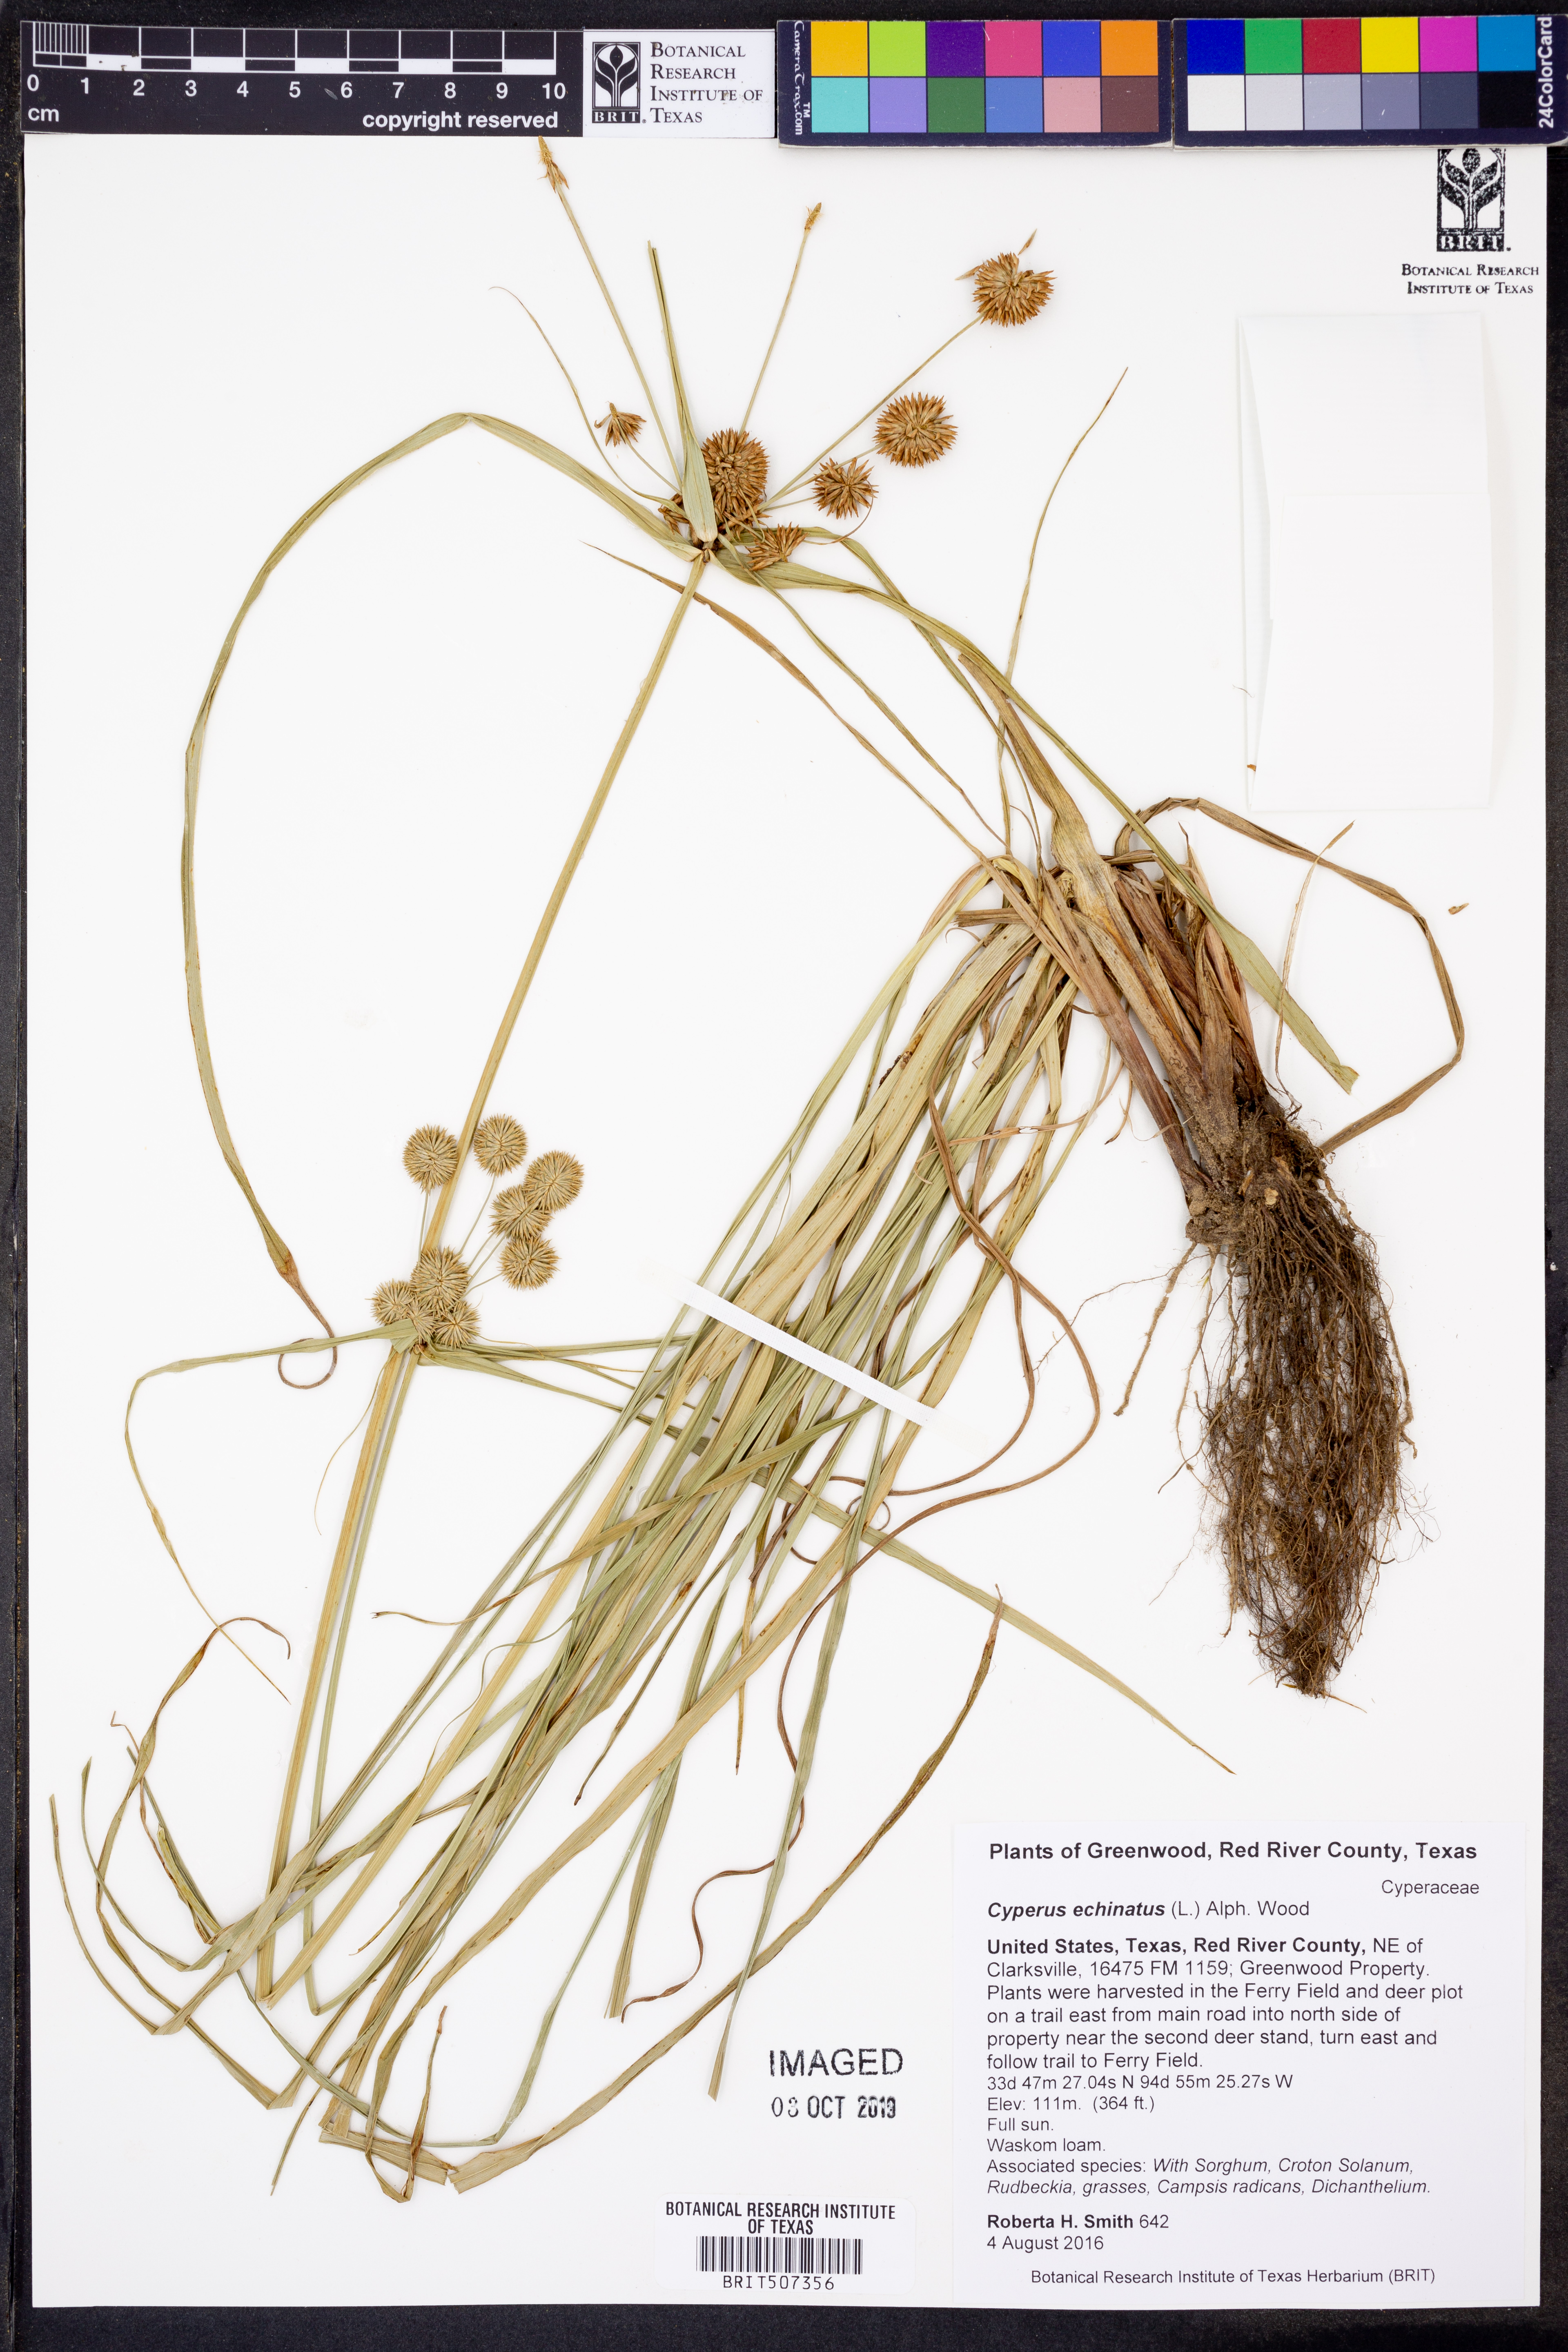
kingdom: Plantae
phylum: Tracheophyta
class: Liliopsida
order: Poales
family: Cyperaceae
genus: Cyperus
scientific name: Cyperus echinatus
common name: Teasel sedge
